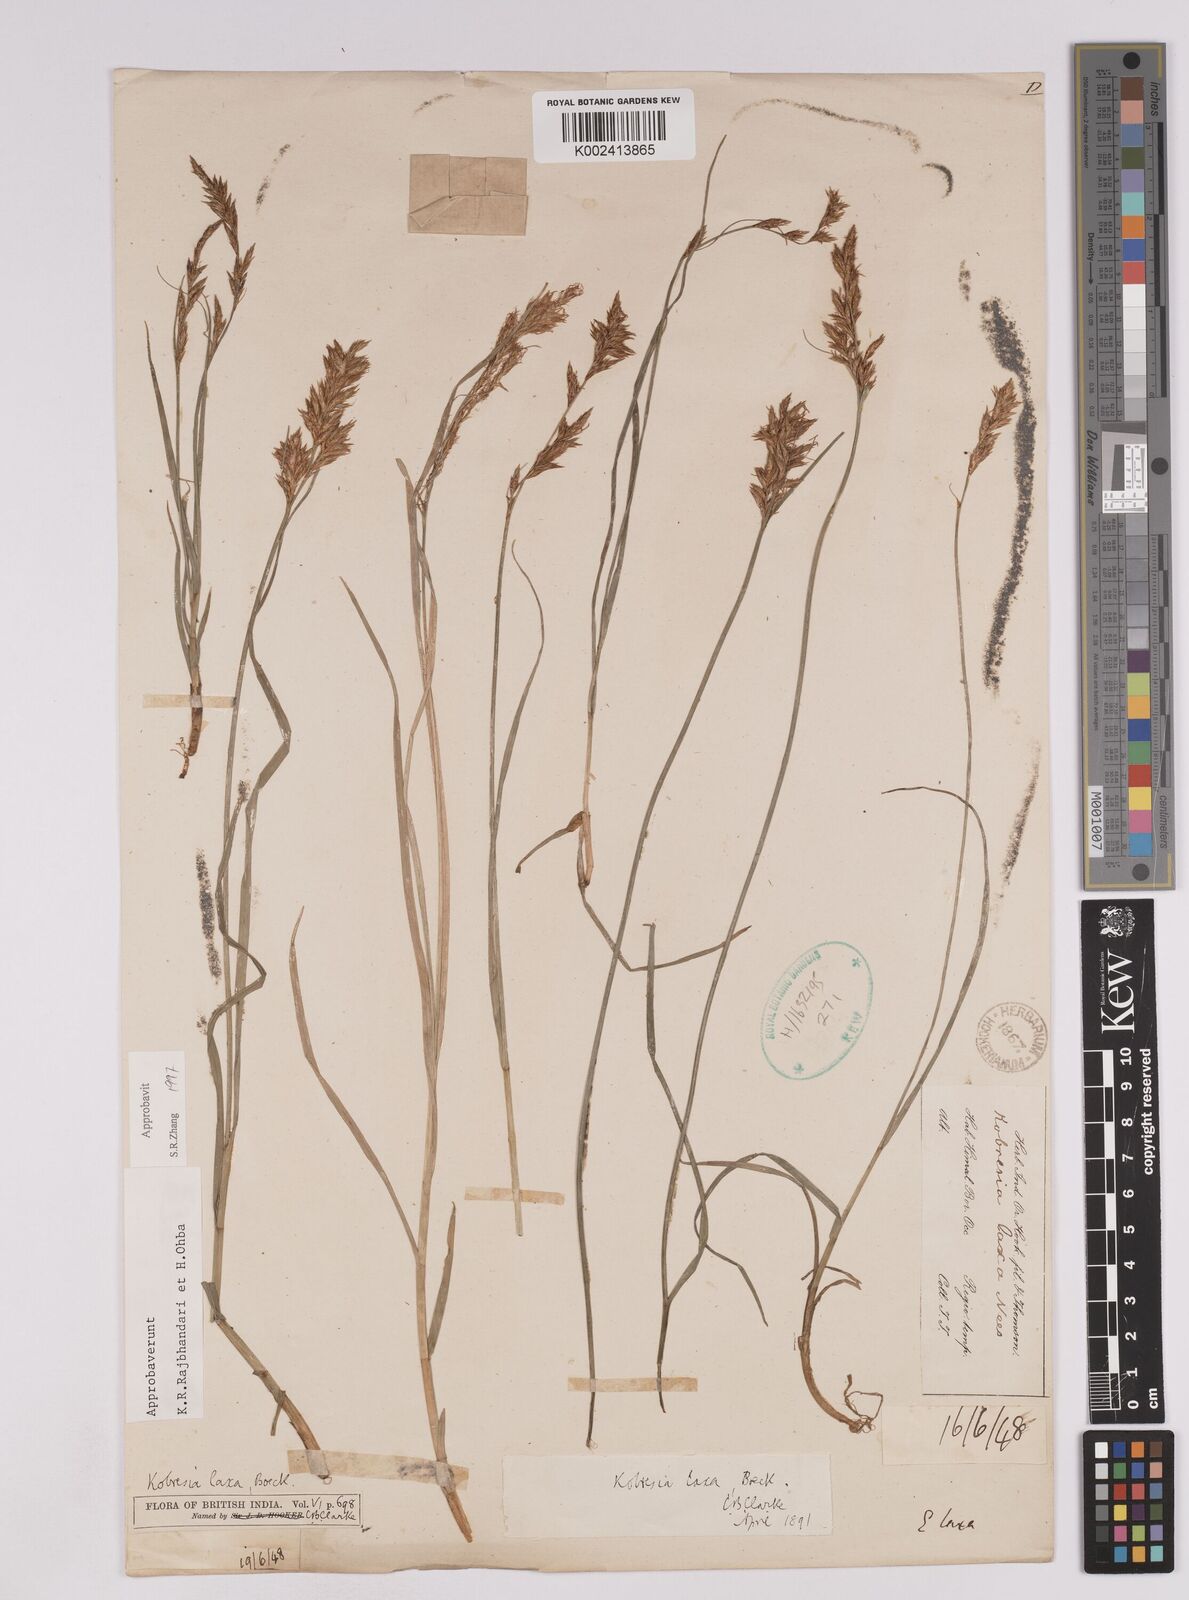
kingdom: Plantae
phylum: Tracheophyta
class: Liliopsida
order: Poales
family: Cyperaceae
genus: Carex
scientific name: Carex pseudolaxa
